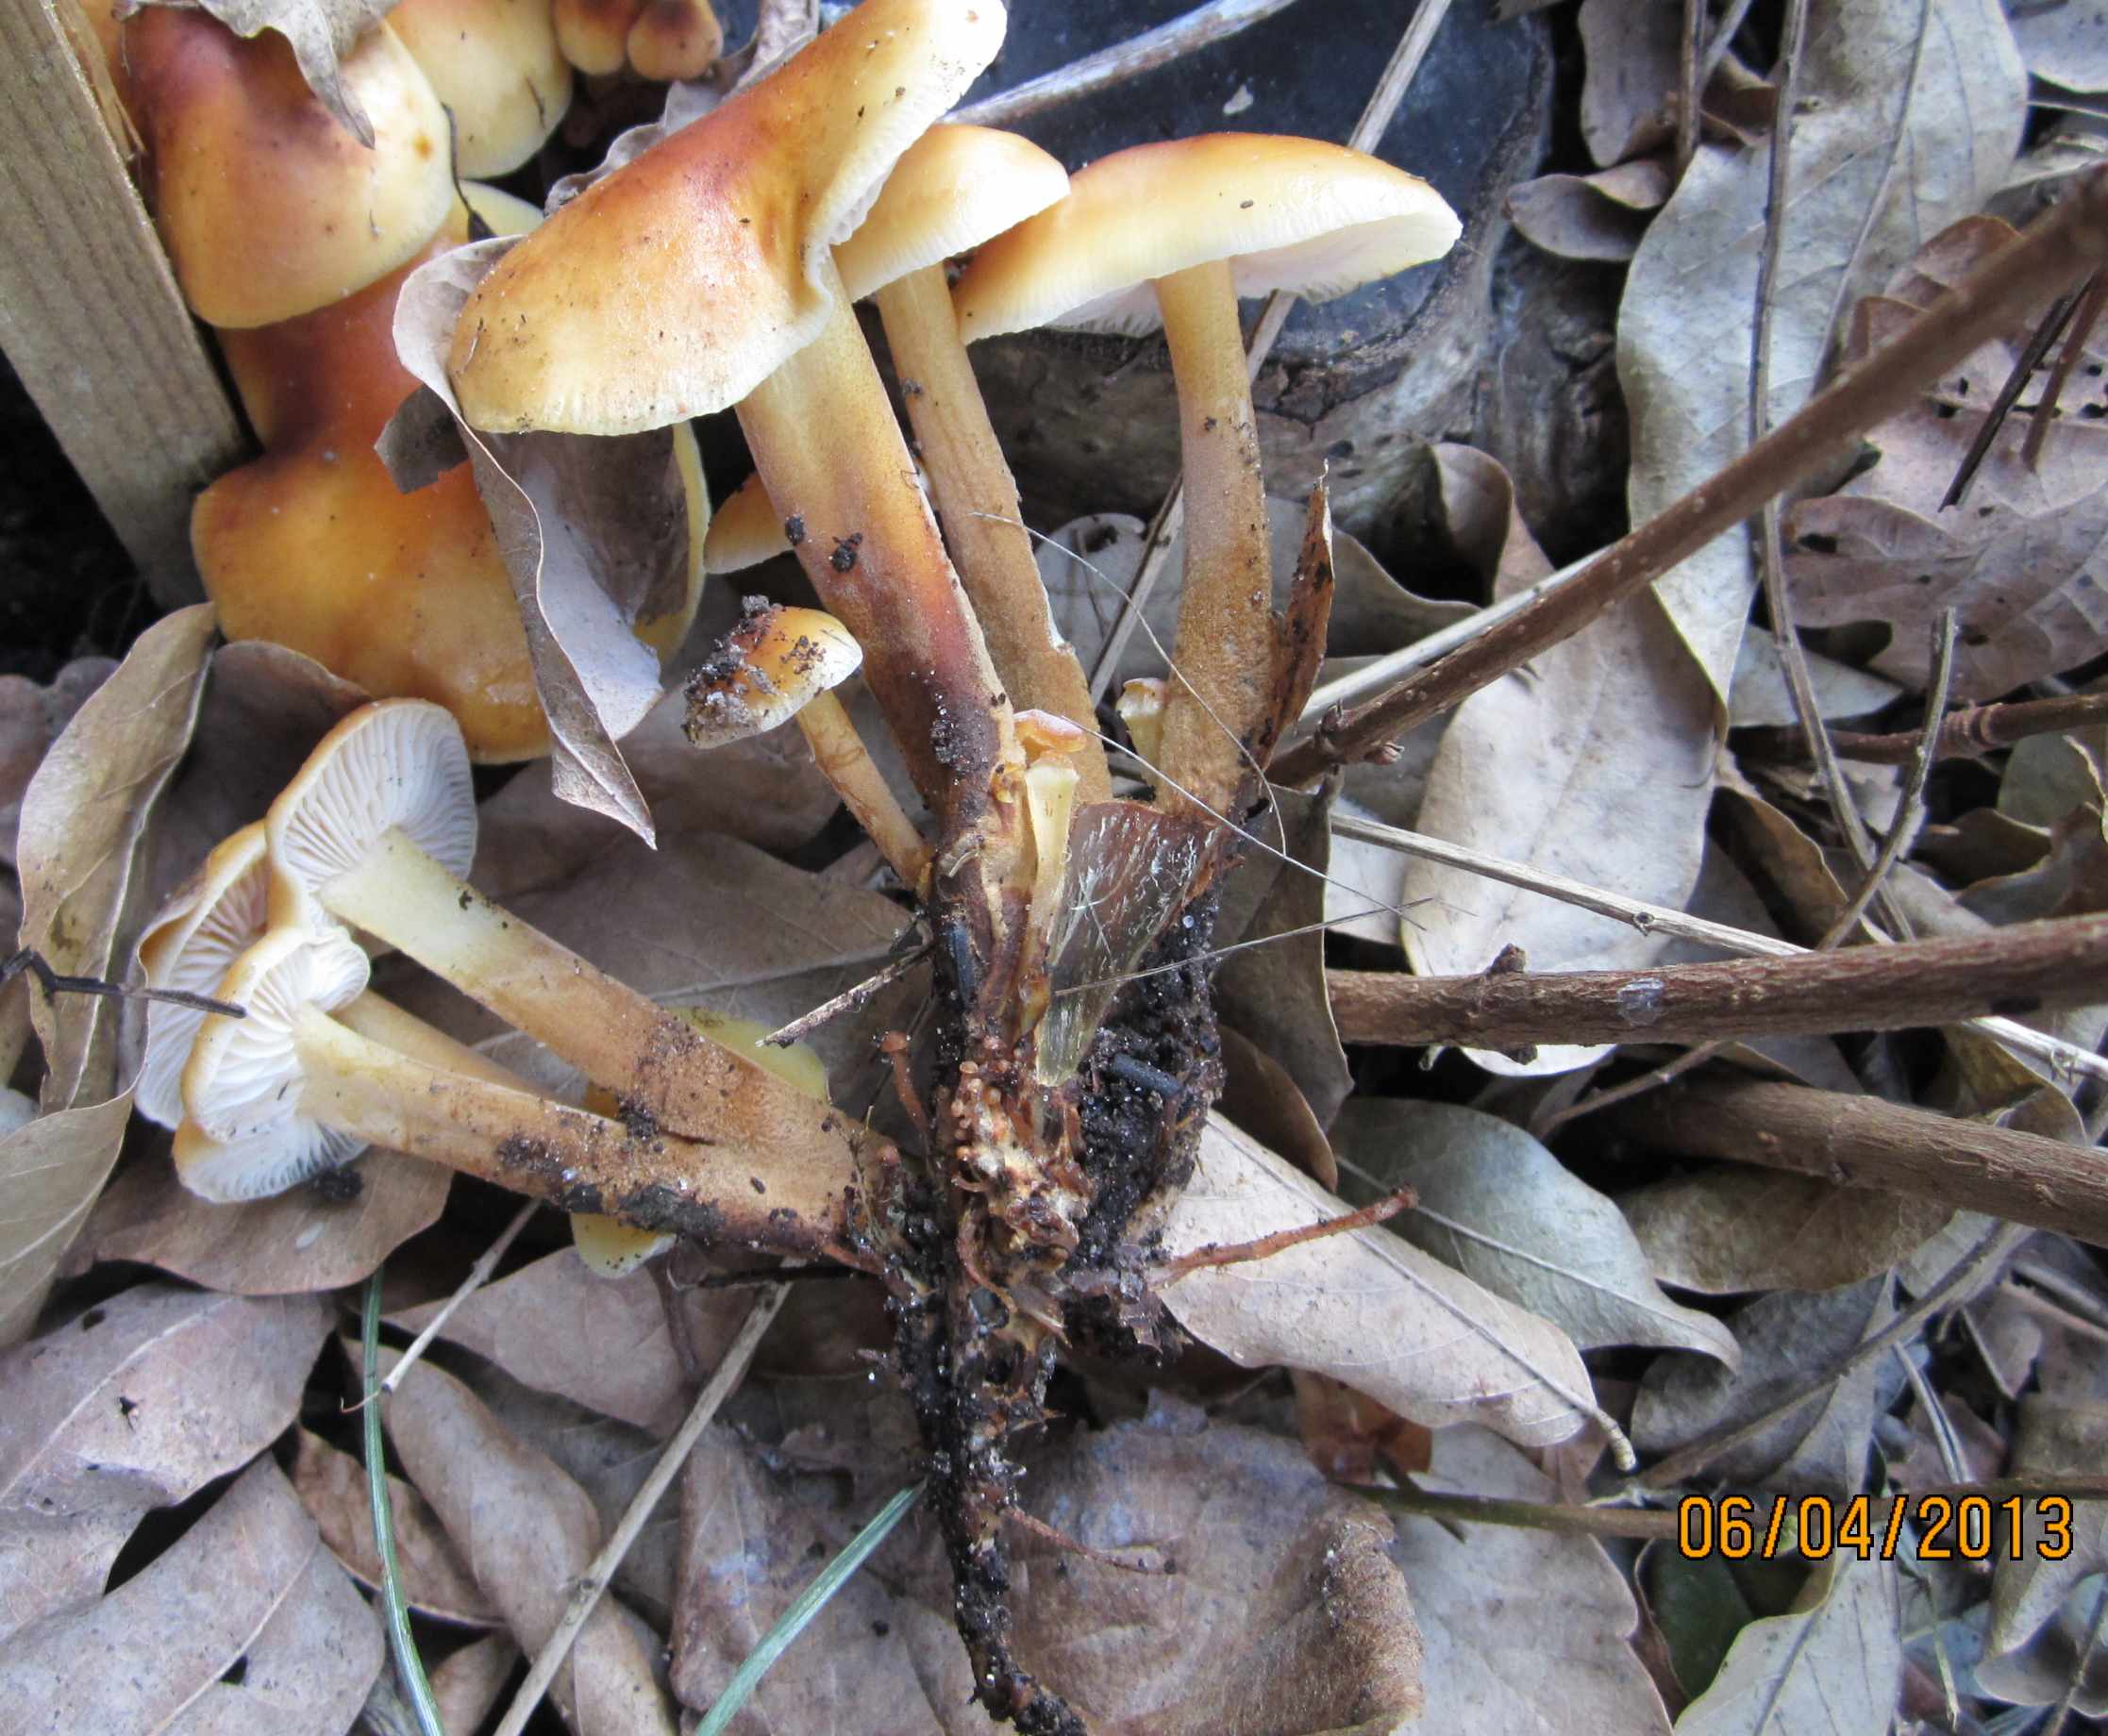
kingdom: Fungi
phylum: Basidiomycota
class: Agaricomycetes
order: Agaricales
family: Physalacriaceae
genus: Flammulina
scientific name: Flammulina velutipes
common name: gul fløjlsfod
